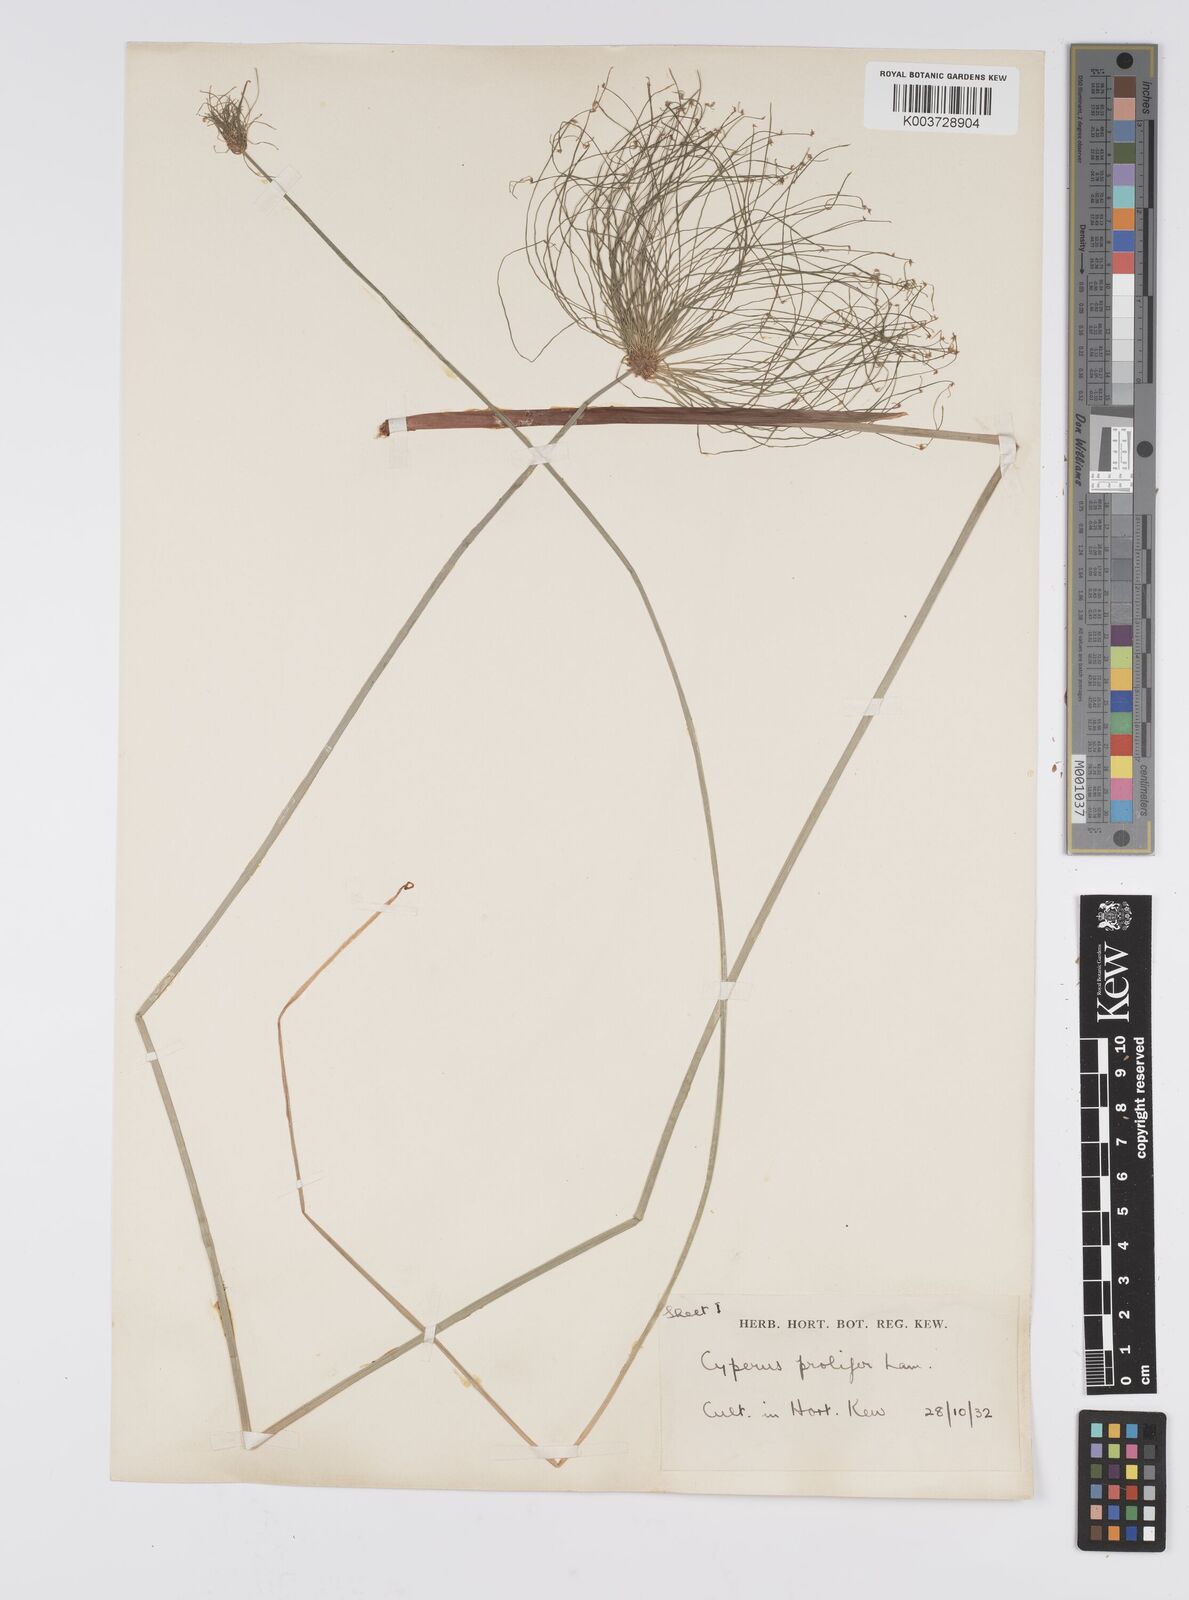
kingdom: Plantae
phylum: Tracheophyta
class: Liliopsida
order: Poales
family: Cyperaceae
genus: Cyperus
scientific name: Cyperus prolifer
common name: Miniature flatsedge
